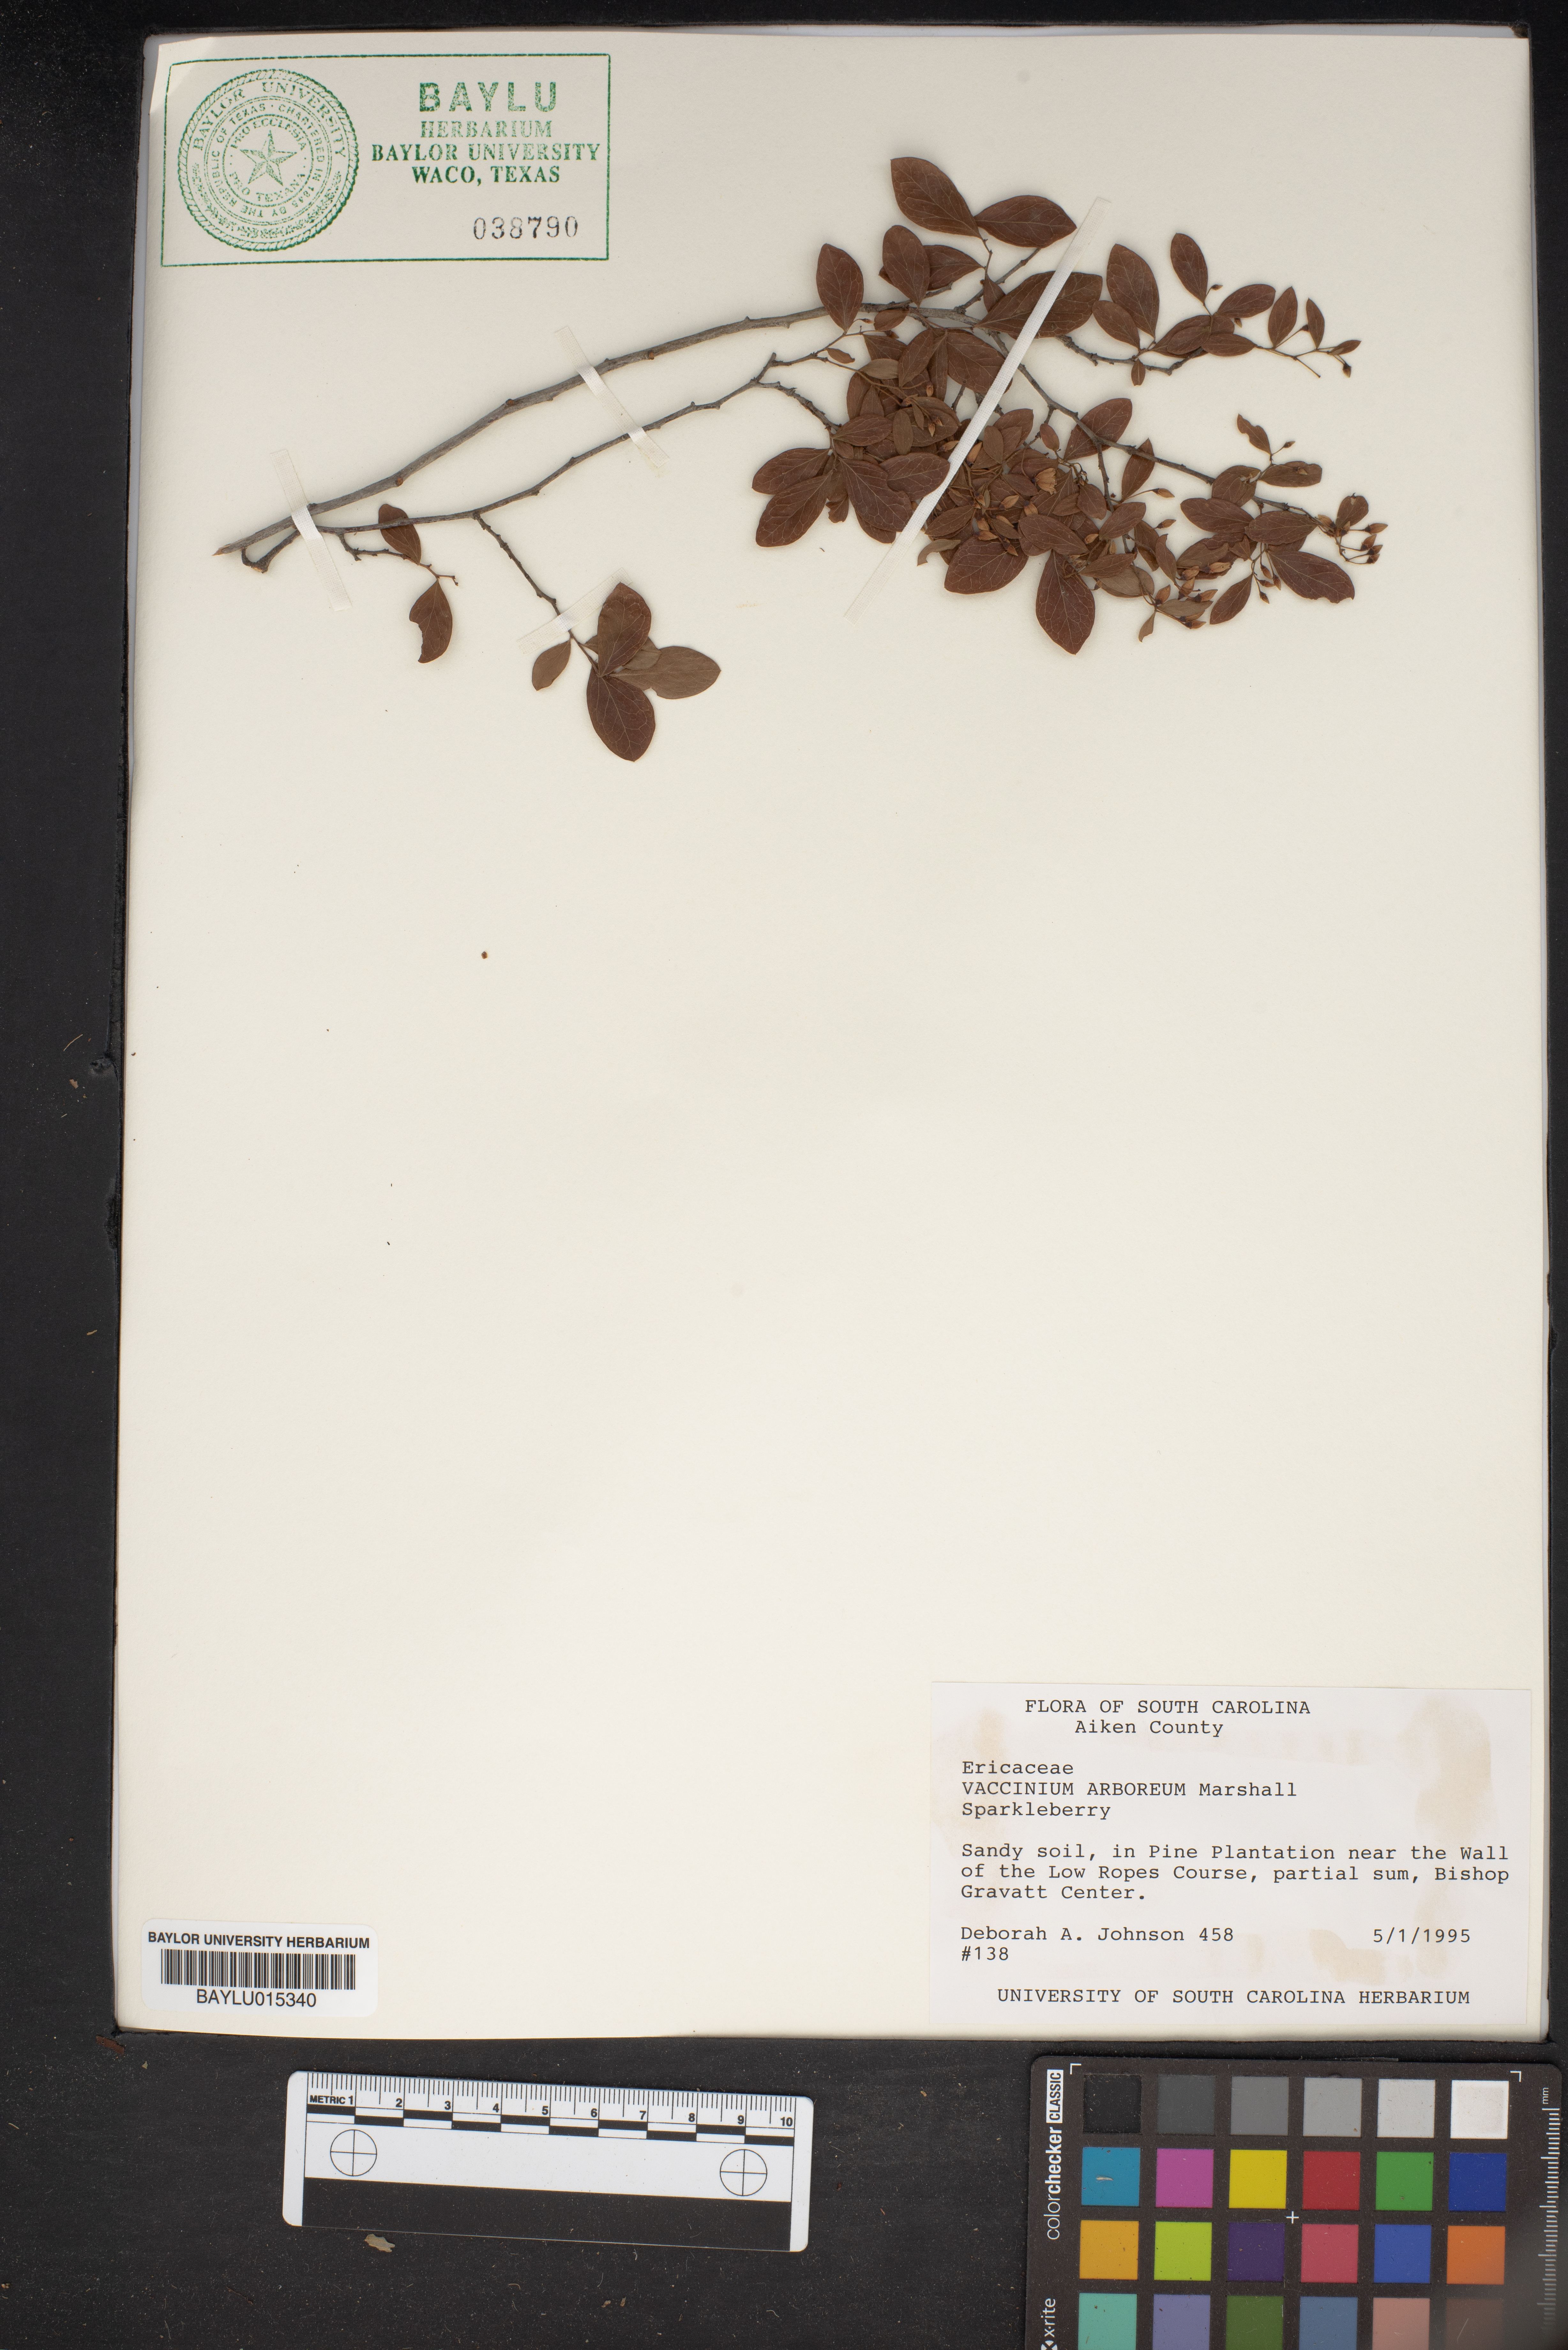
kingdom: Plantae
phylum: Tracheophyta
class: Magnoliopsida
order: Ericales
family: Ericaceae
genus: Vaccinium
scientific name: Vaccinium arboreum
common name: Farkleberry
